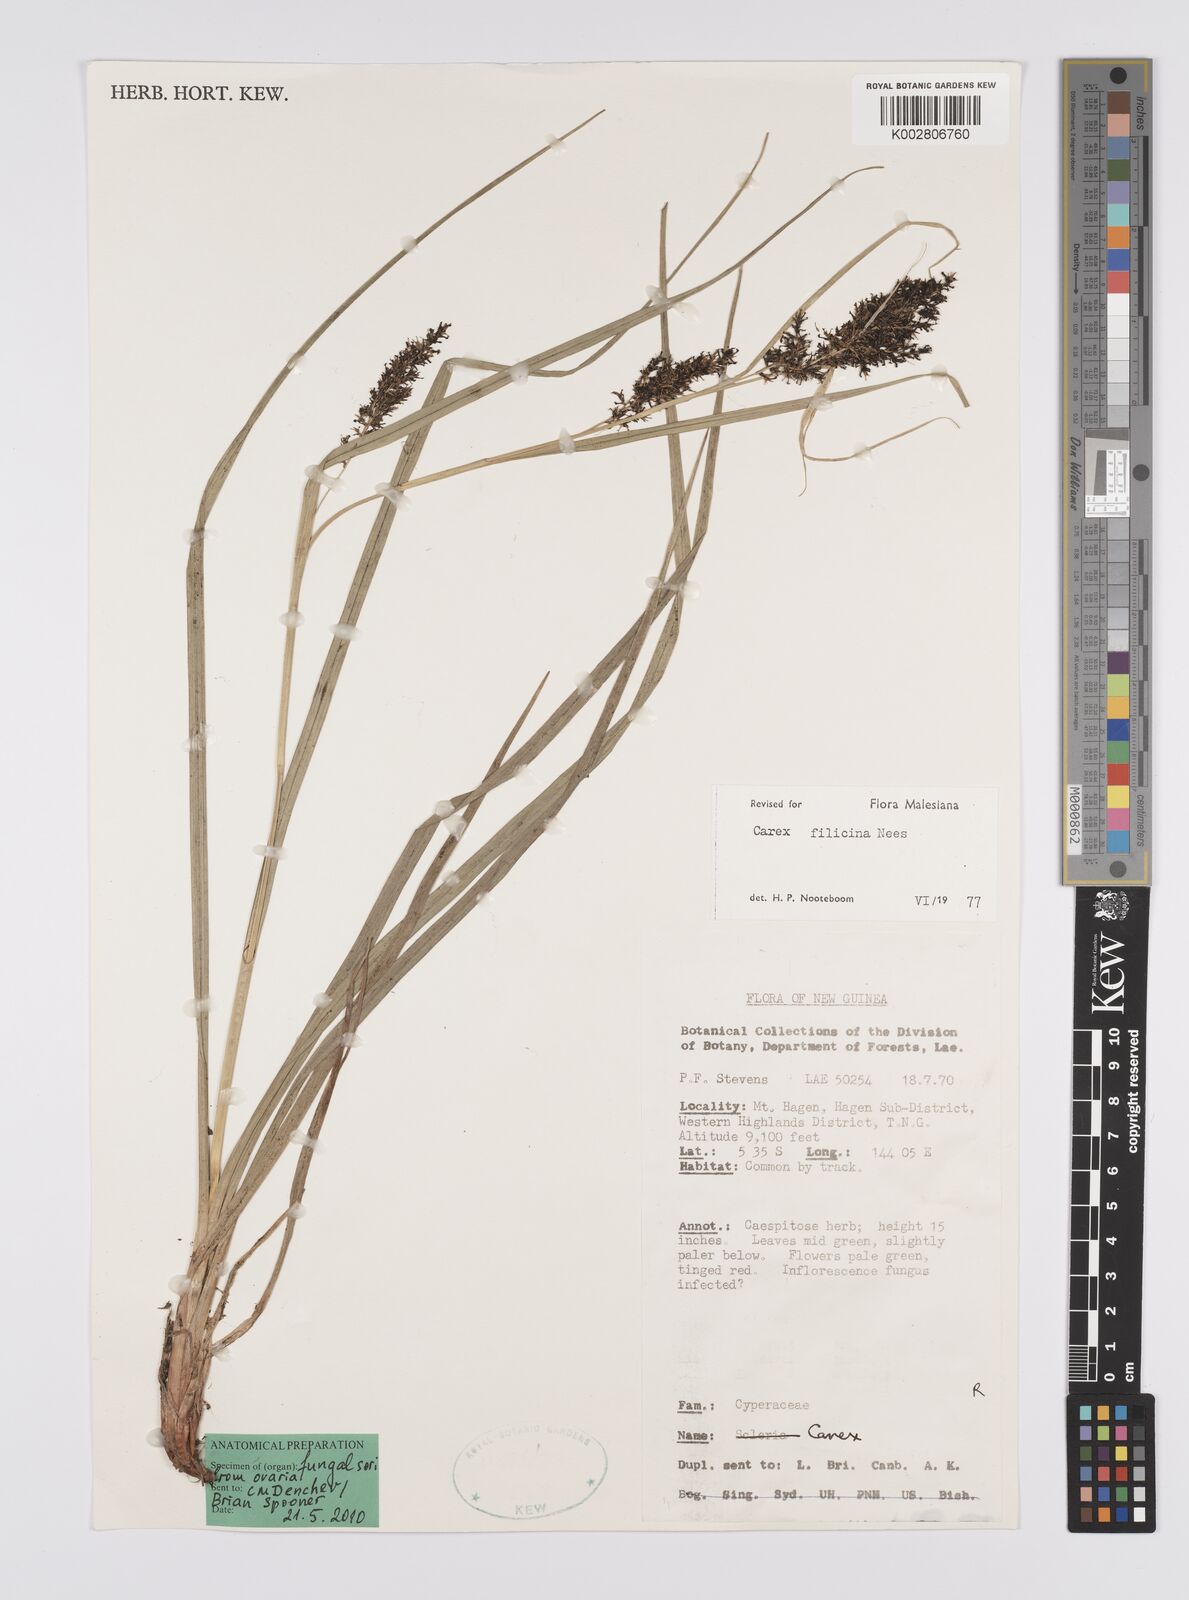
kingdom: Plantae
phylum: Tracheophyta
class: Liliopsida
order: Poales
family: Cyperaceae
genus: Carex
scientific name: Carex filicina
